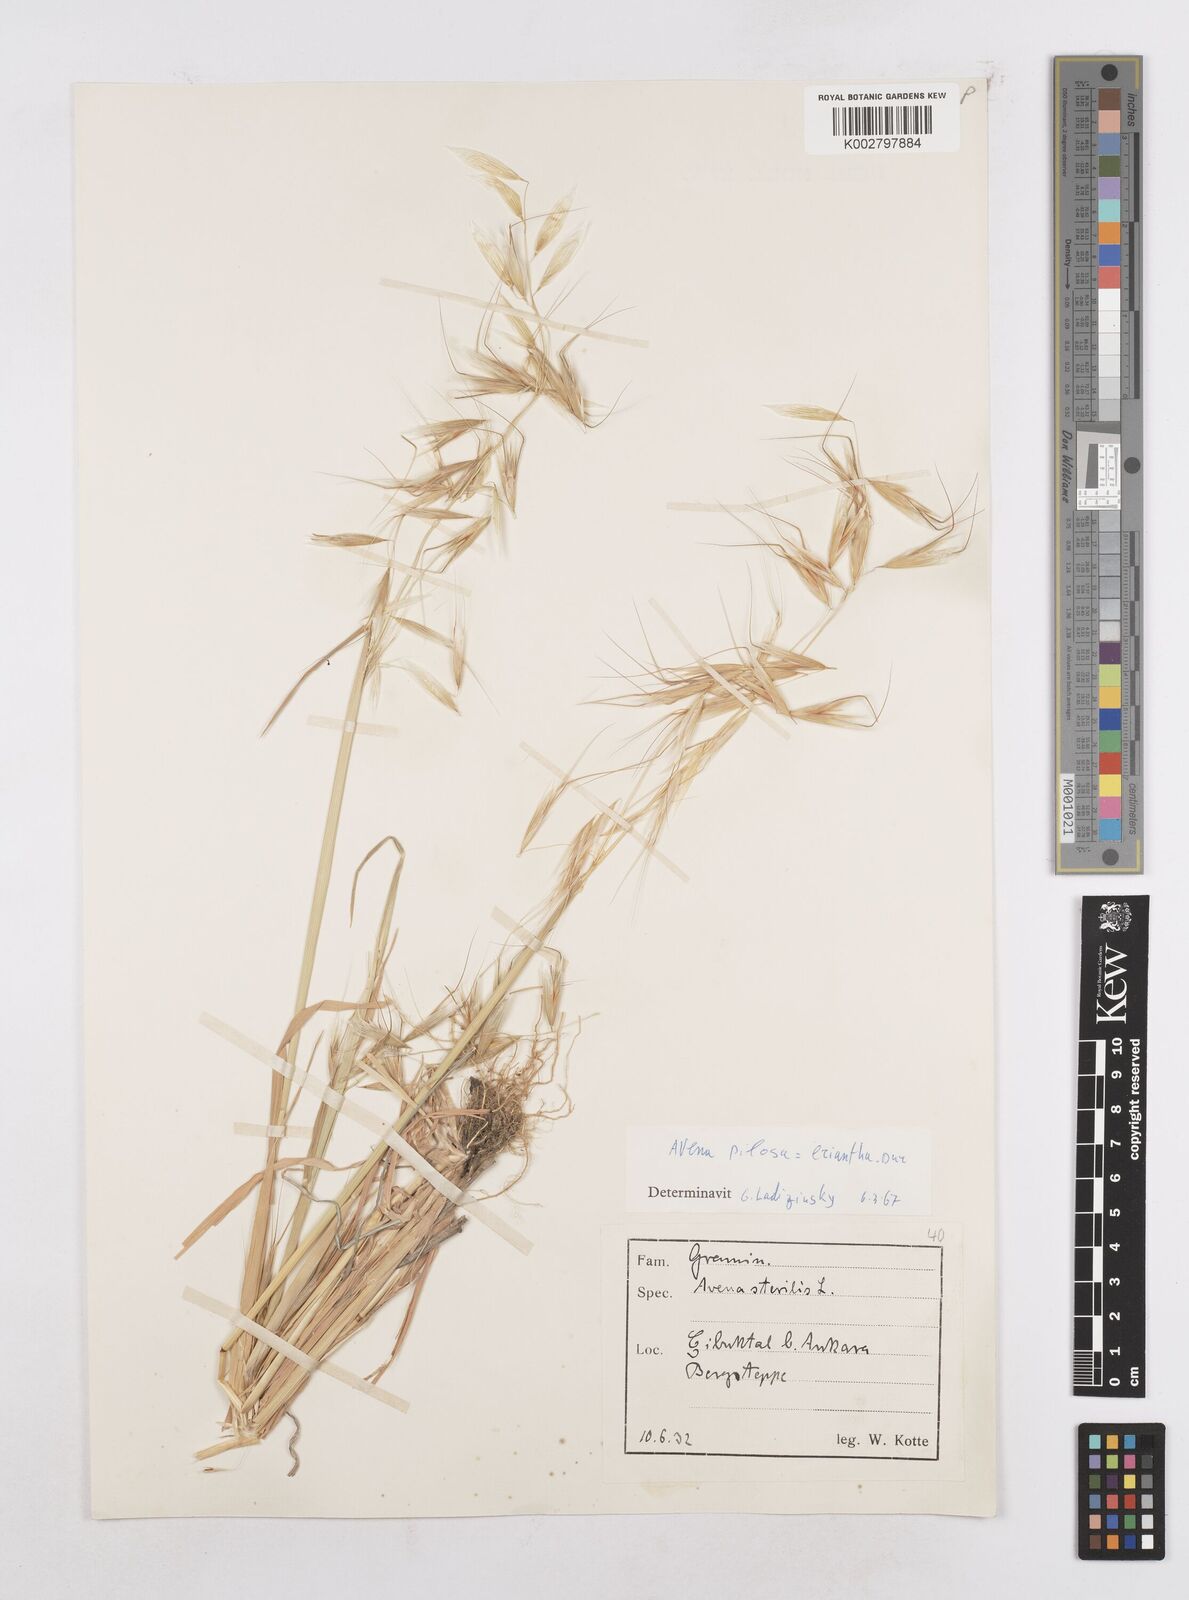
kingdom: Plantae
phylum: Tracheophyta
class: Liliopsida
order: Poales
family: Poaceae
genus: Avena
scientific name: Avena eriantha
